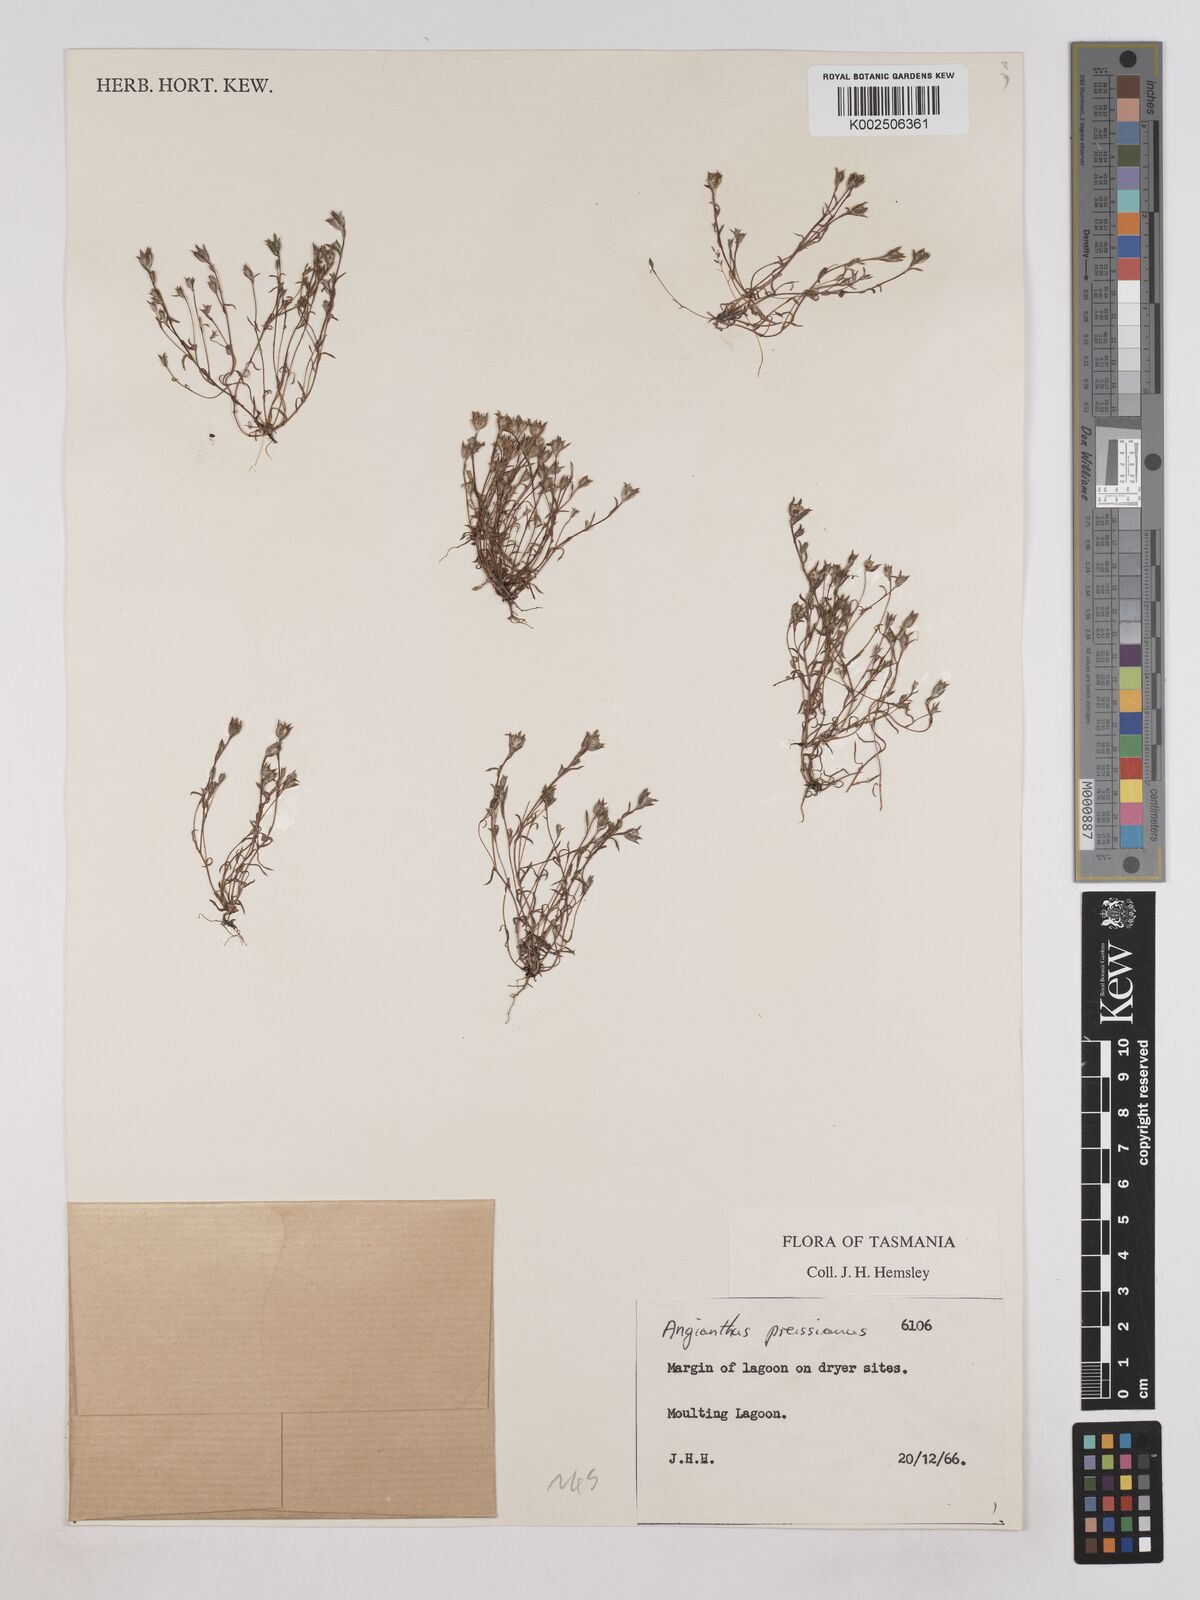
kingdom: Plantae
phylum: Tracheophyta
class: Magnoliopsida
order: Asterales
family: Asteraceae
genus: Angianthus
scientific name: Angianthus preissianus
